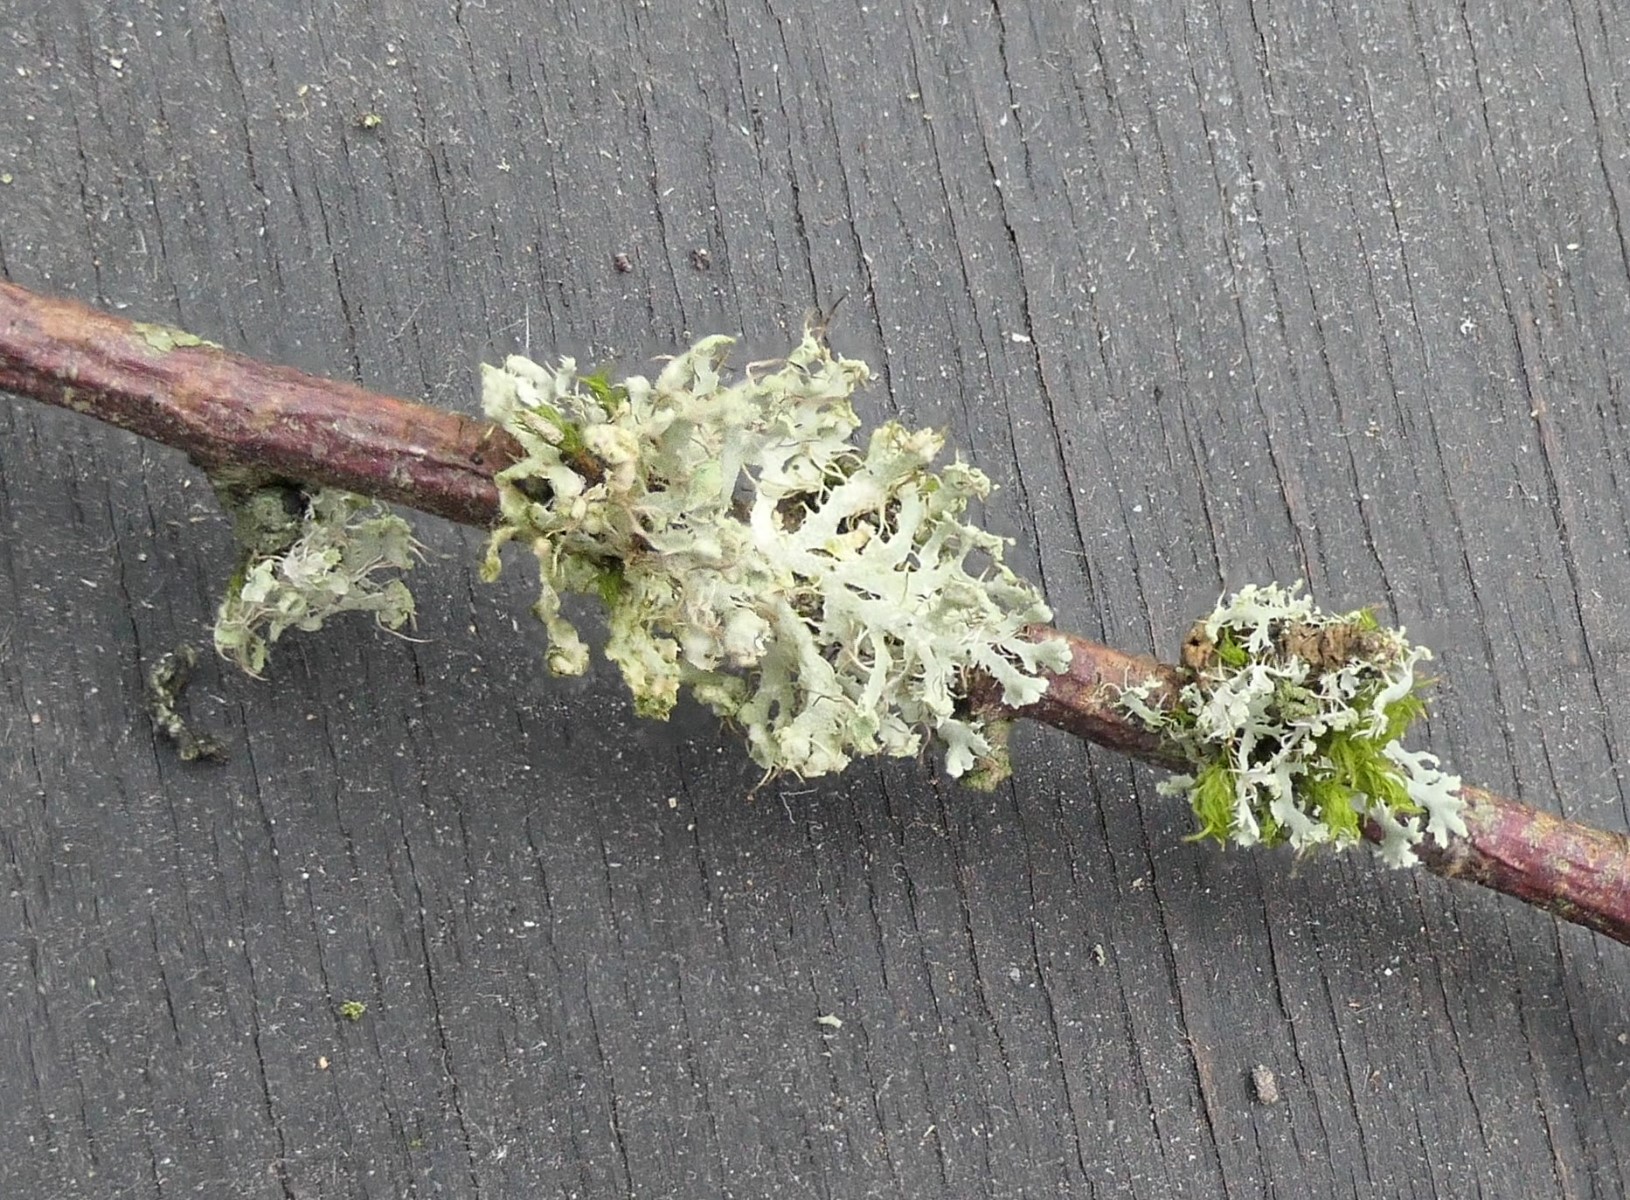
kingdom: Fungi
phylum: Ascomycota
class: Lecanoromycetes
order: Caliciales
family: Physciaceae
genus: Physcia
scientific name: Physcia tenella
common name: spæd rosetlav
